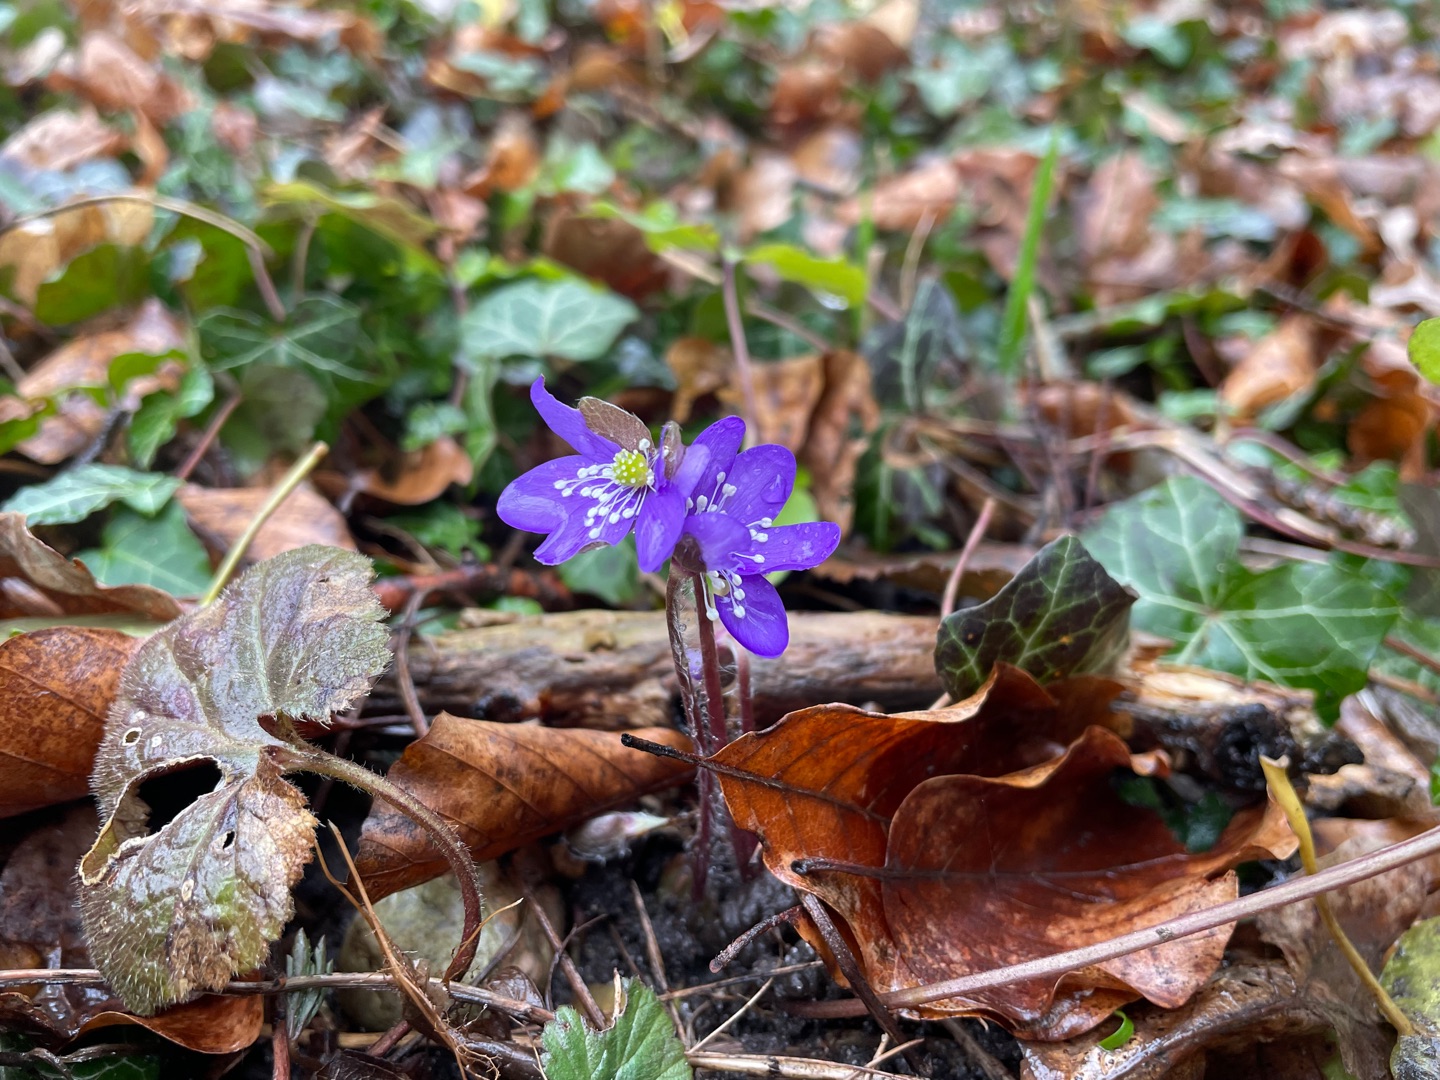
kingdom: Plantae
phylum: Tracheophyta
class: Magnoliopsida
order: Ranunculales
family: Ranunculaceae
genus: Hepatica
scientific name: Hepatica nobilis
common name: Blå anemone
